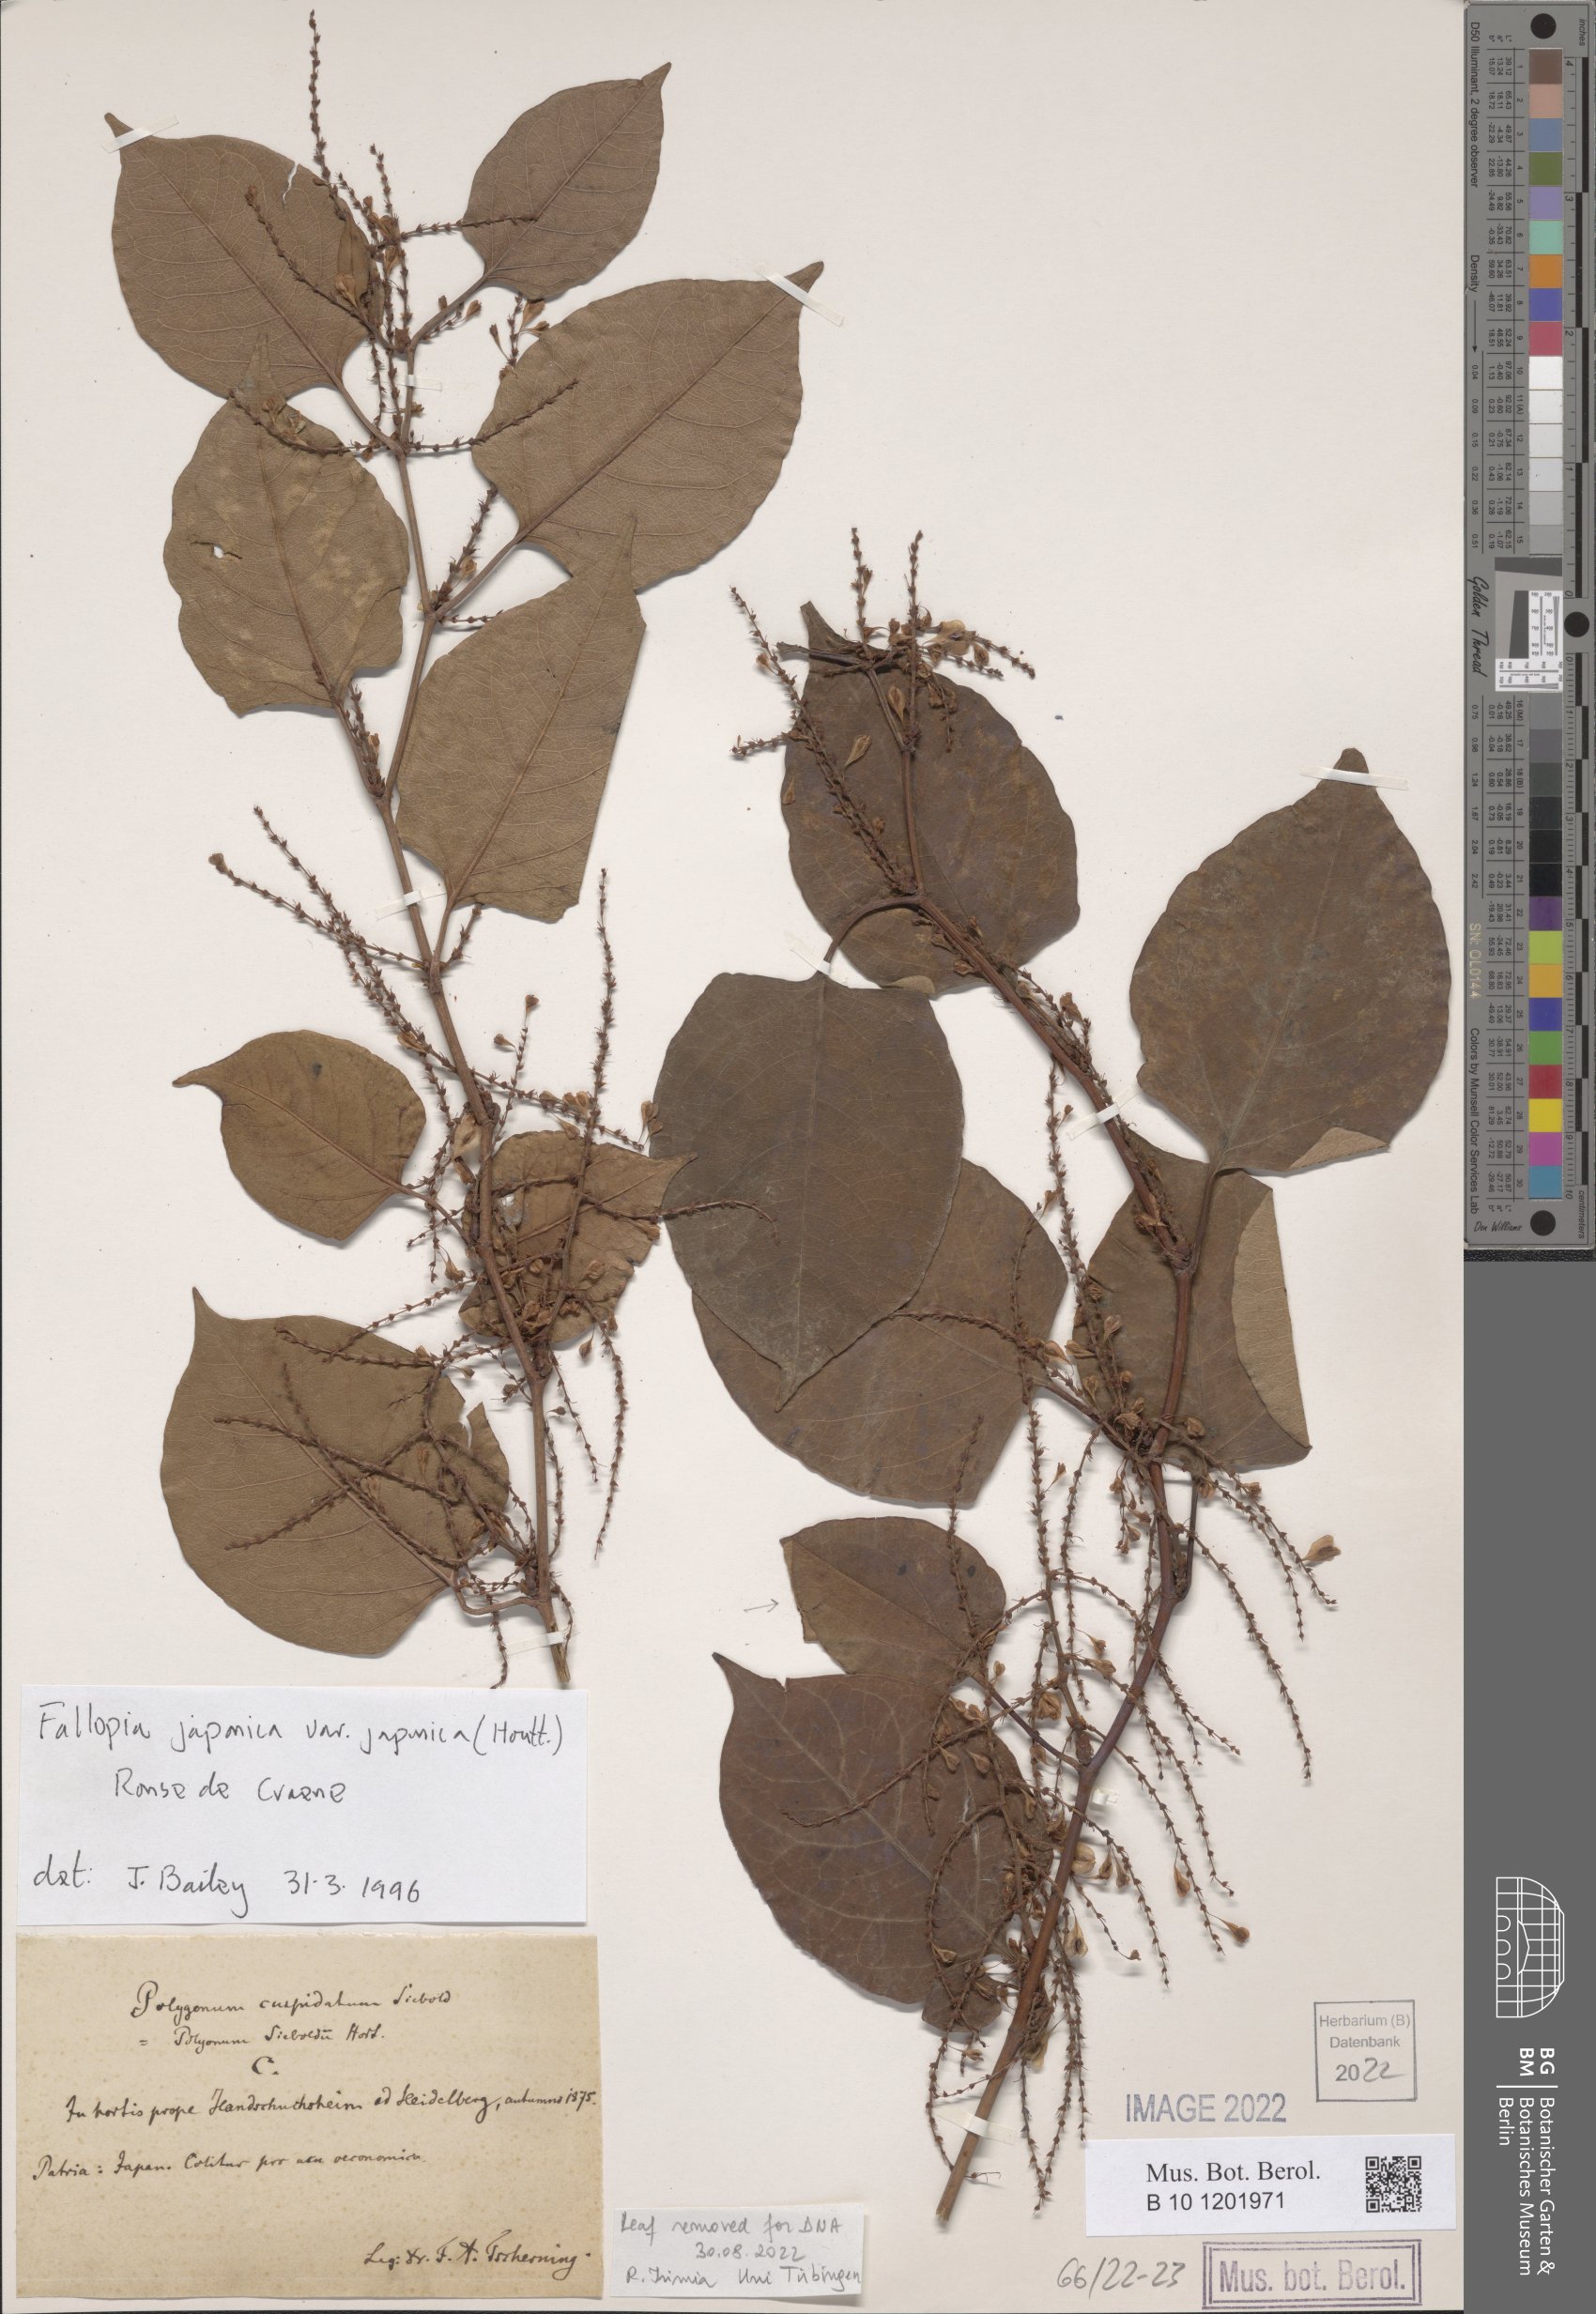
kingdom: Plantae
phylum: Tracheophyta
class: Magnoliopsida
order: Caryophyllales
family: Polygonaceae
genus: Reynoutria
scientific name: Reynoutria japonica
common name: Japanese knotweed
